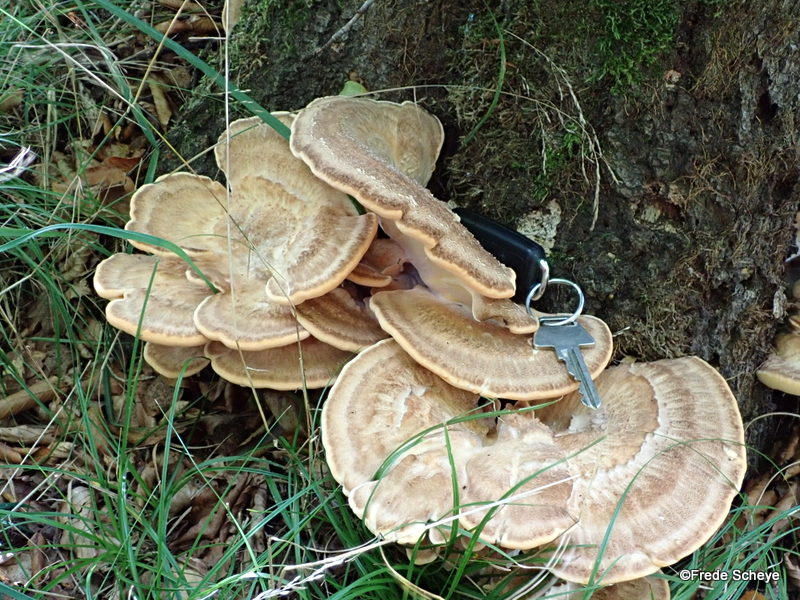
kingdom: Fungi
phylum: Basidiomycota
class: Agaricomycetes
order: Polyporales
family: Meripilaceae
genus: Meripilus
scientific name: Meripilus giganteus
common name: kæmpeporesvamp
